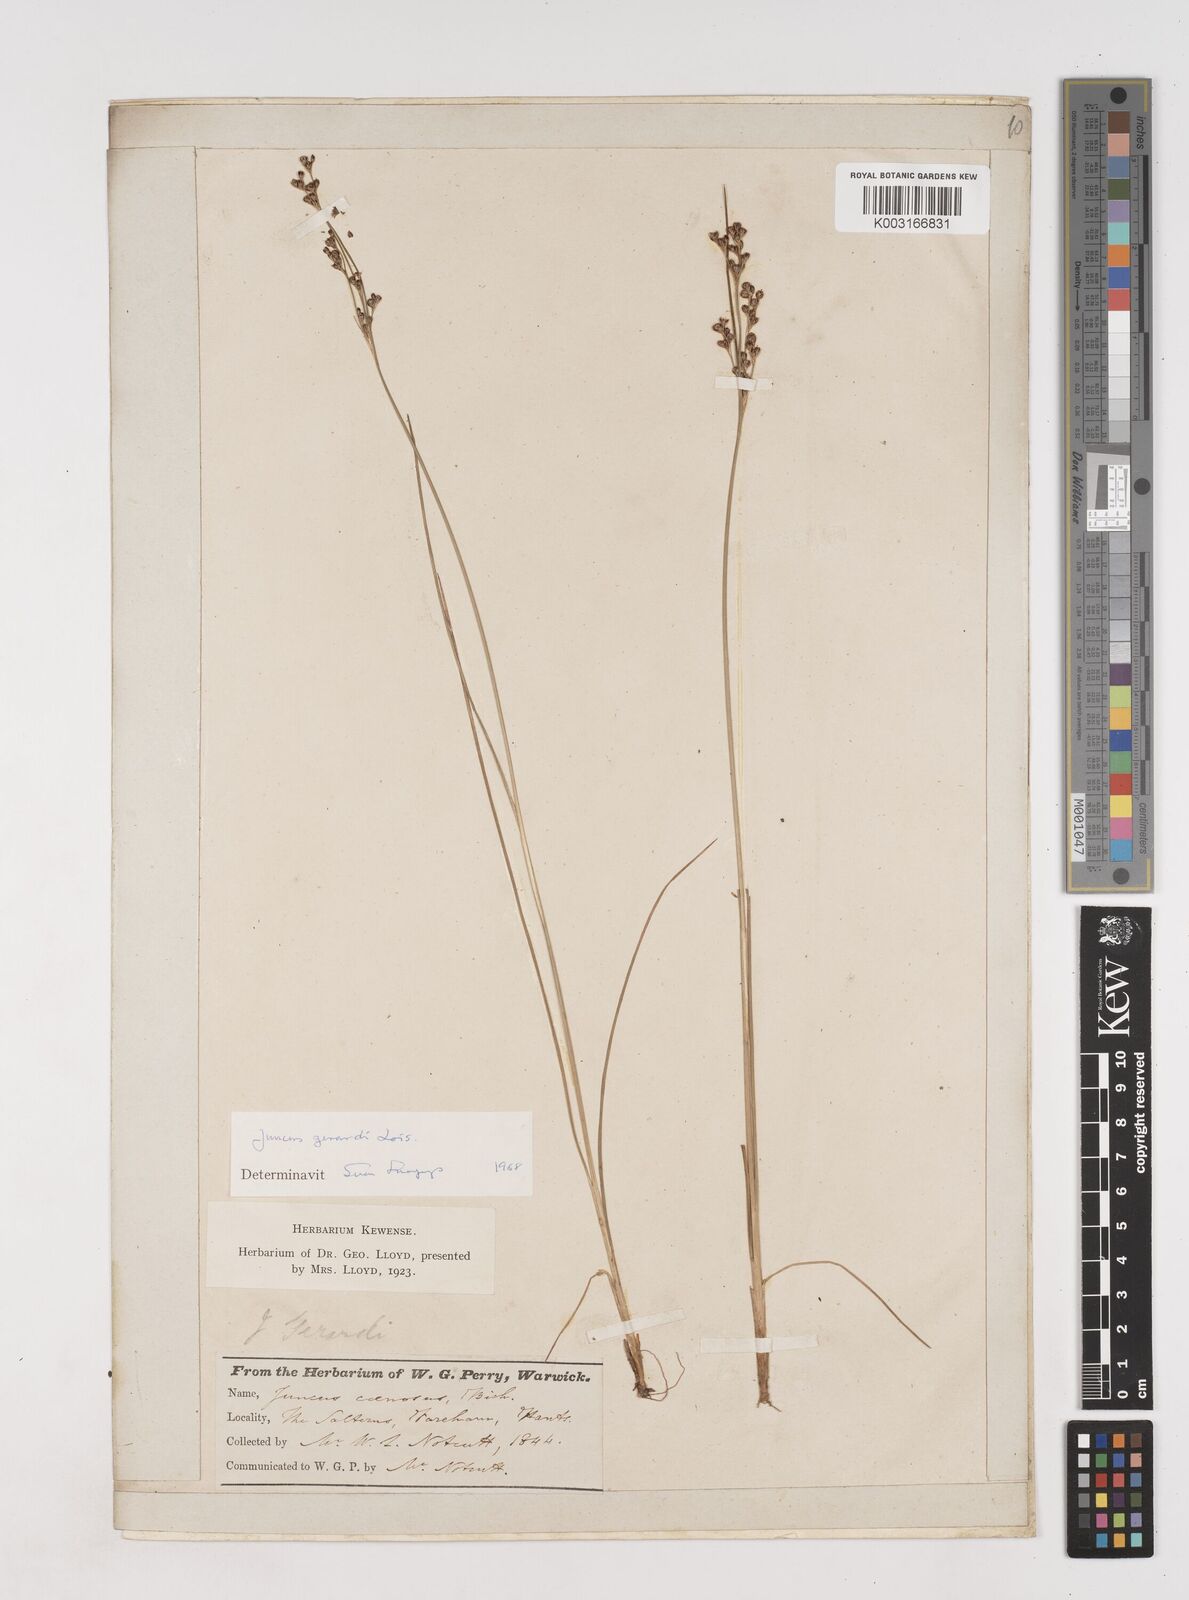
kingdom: Plantae
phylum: Tracheophyta
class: Liliopsida
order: Poales
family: Juncaceae
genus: Juncus
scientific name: Juncus gerardi
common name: Saltmarsh rush
